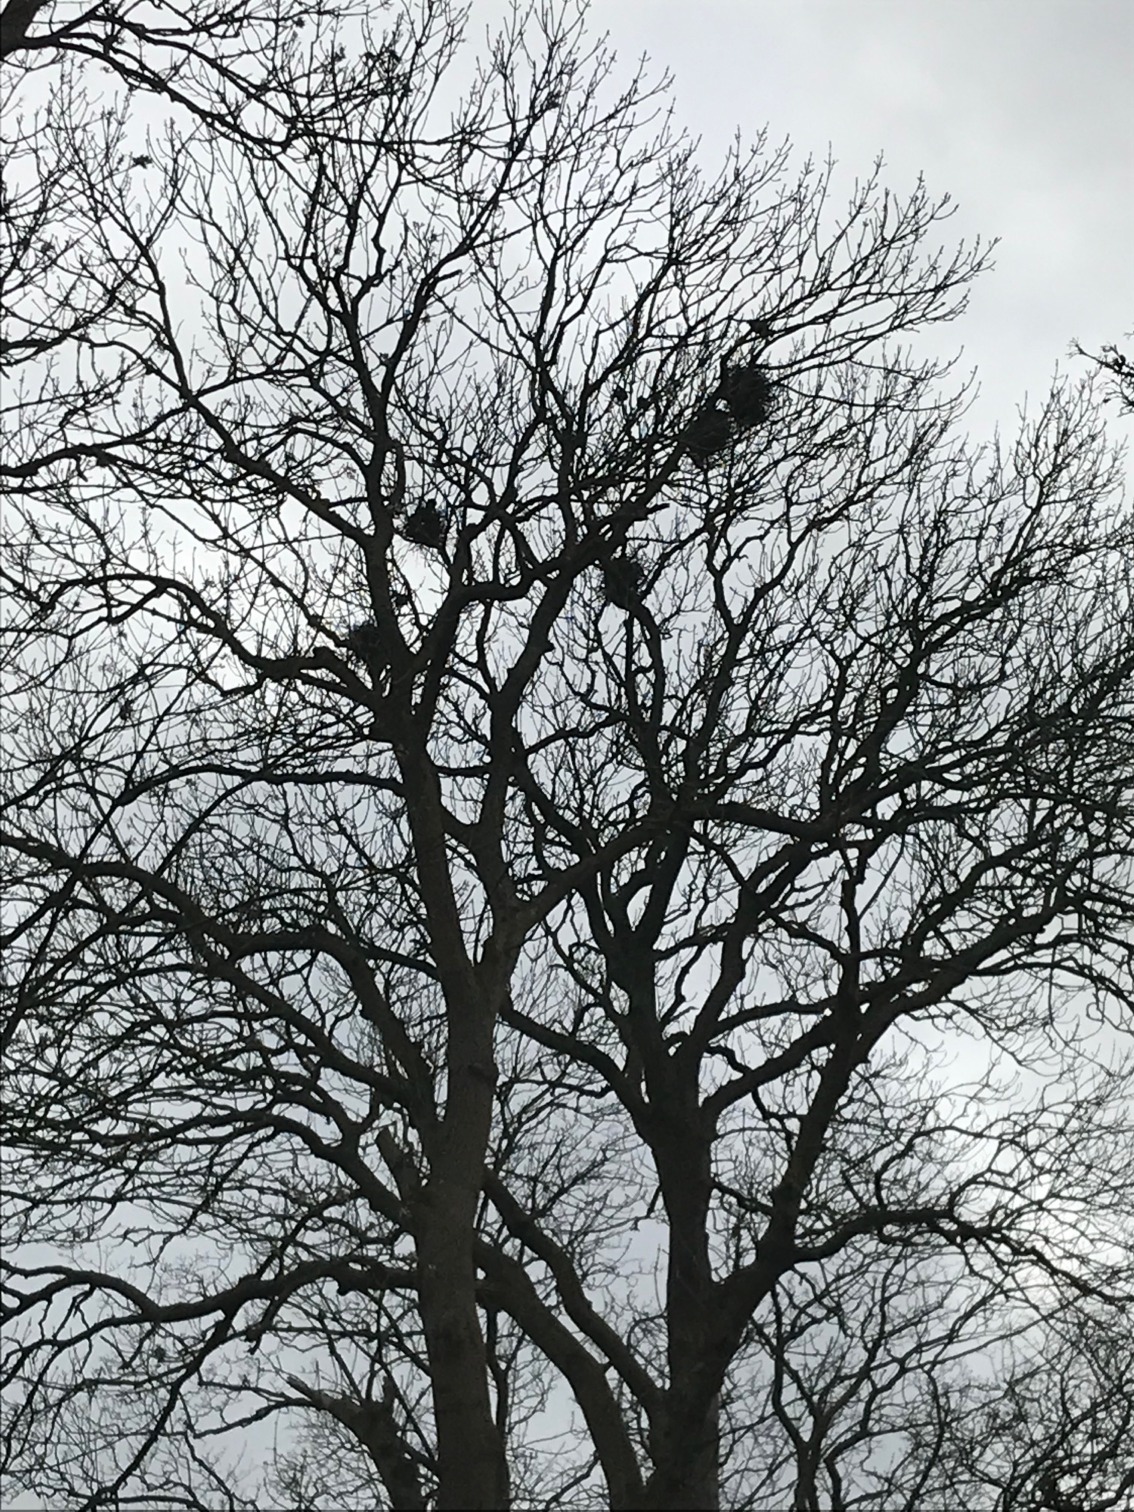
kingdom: Animalia
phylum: Chordata
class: Aves
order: Passeriformes
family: Corvidae
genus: Corvus
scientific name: Corvus frugilegus
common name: Råge
